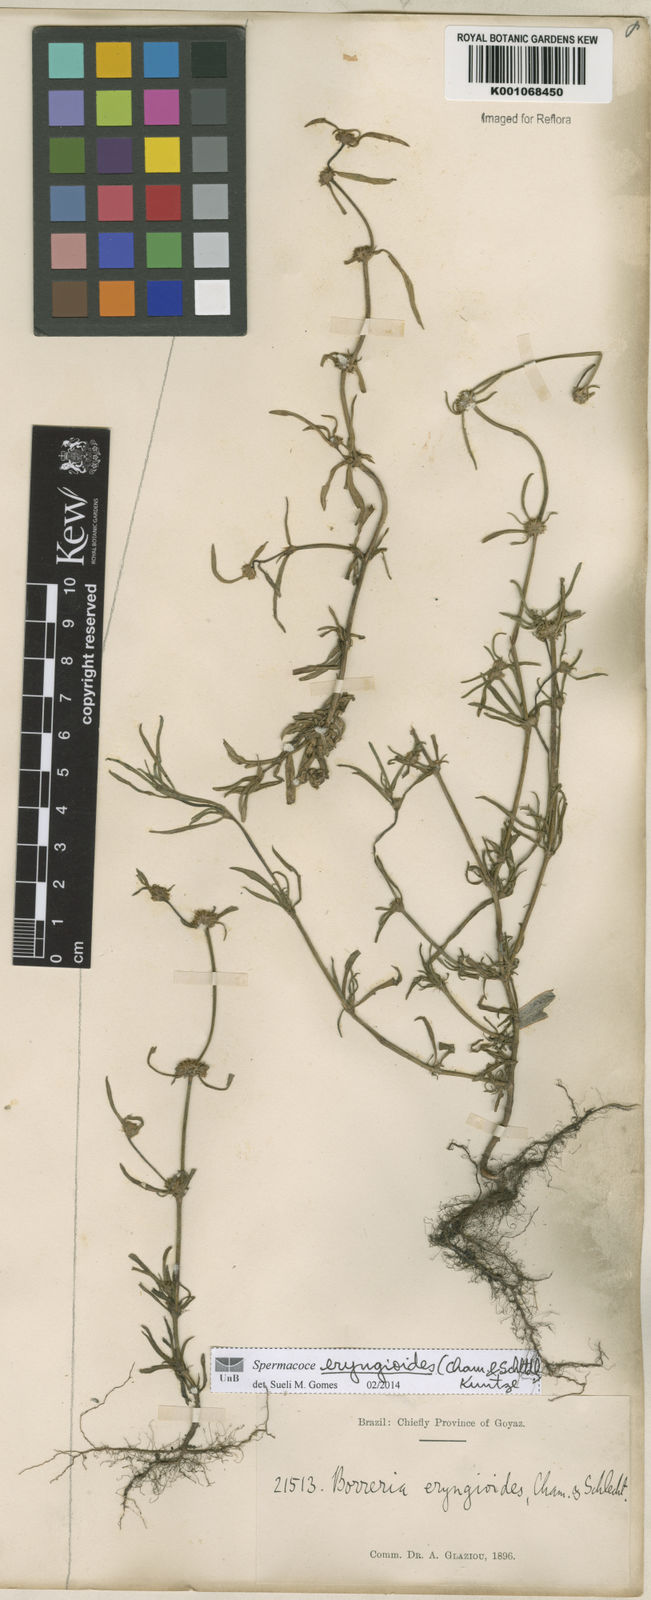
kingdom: Plantae
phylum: Tracheophyta
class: Magnoliopsida
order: Gentianales
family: Rubiaceae
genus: Spermacoce
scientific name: Spermacoce eryngioides
